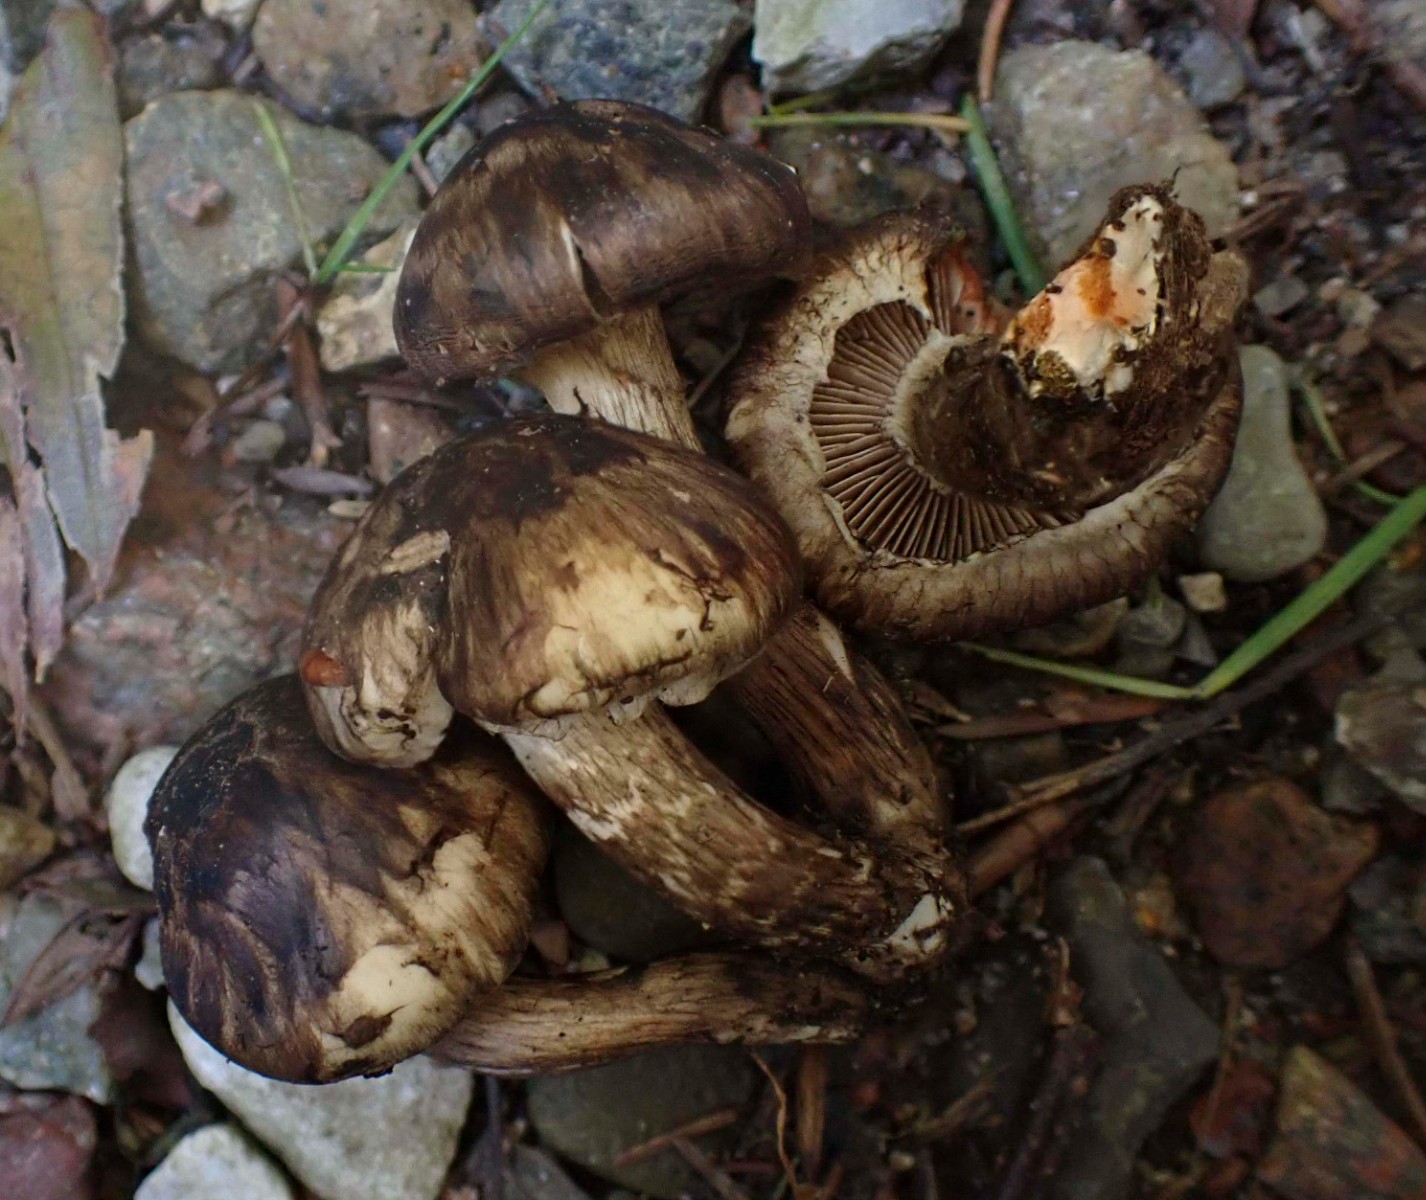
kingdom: Fungi
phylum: Basidiomycota
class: Agaricomycetes
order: Agaricales
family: Psathyrellaceae
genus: Psathyrella
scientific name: Psathyrella maculata
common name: sortskællet mørkhat
